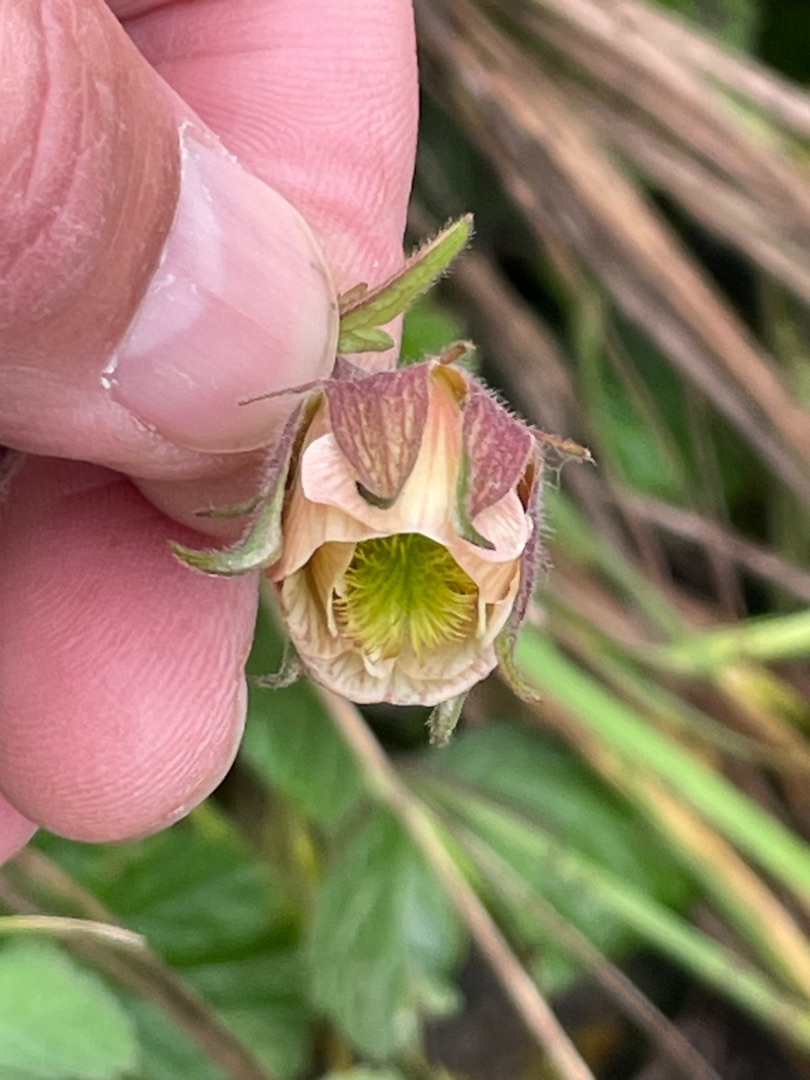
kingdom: Plantae
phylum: Tracheophyta
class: Magnoliopsida
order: Rosales
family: Rosaceae
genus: Geum
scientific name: Geum rivale
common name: Eng-nellikerod
